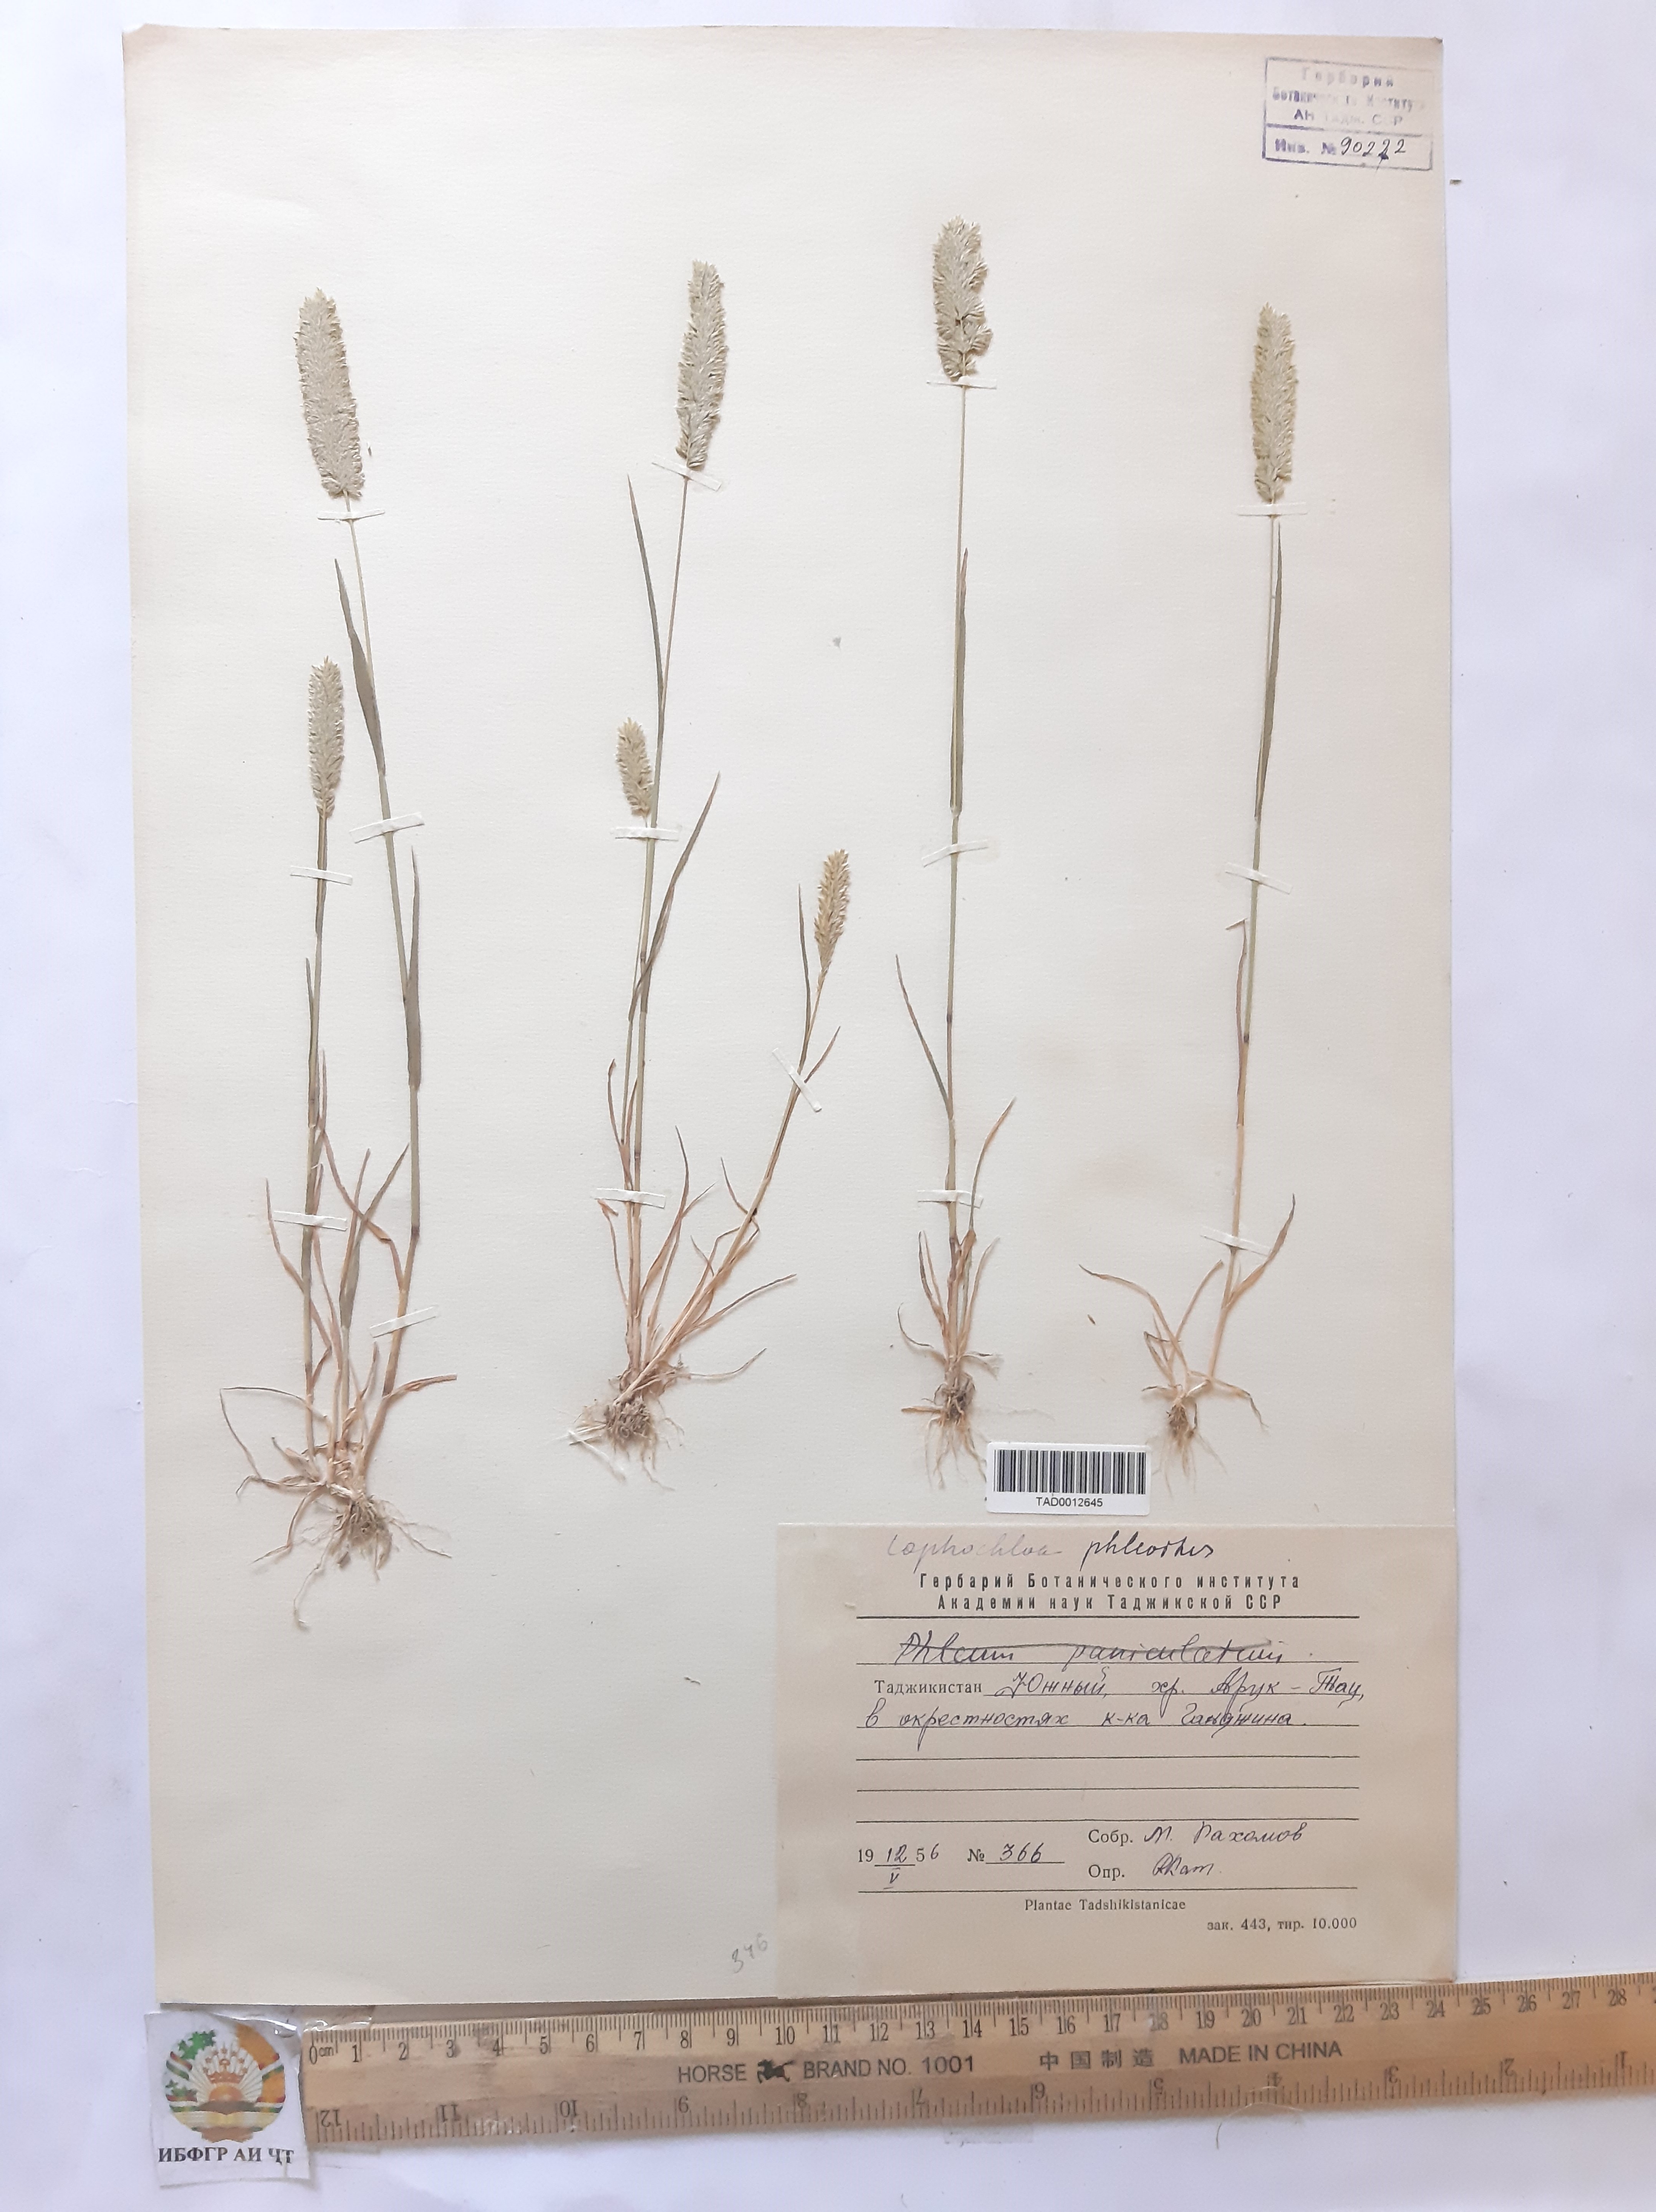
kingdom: Plantae
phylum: Tracheophyta
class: Liliopsida
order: Poales
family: Poaceae
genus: Rostraria
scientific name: Rostraria cristata
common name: Mediterranean hair-grass
